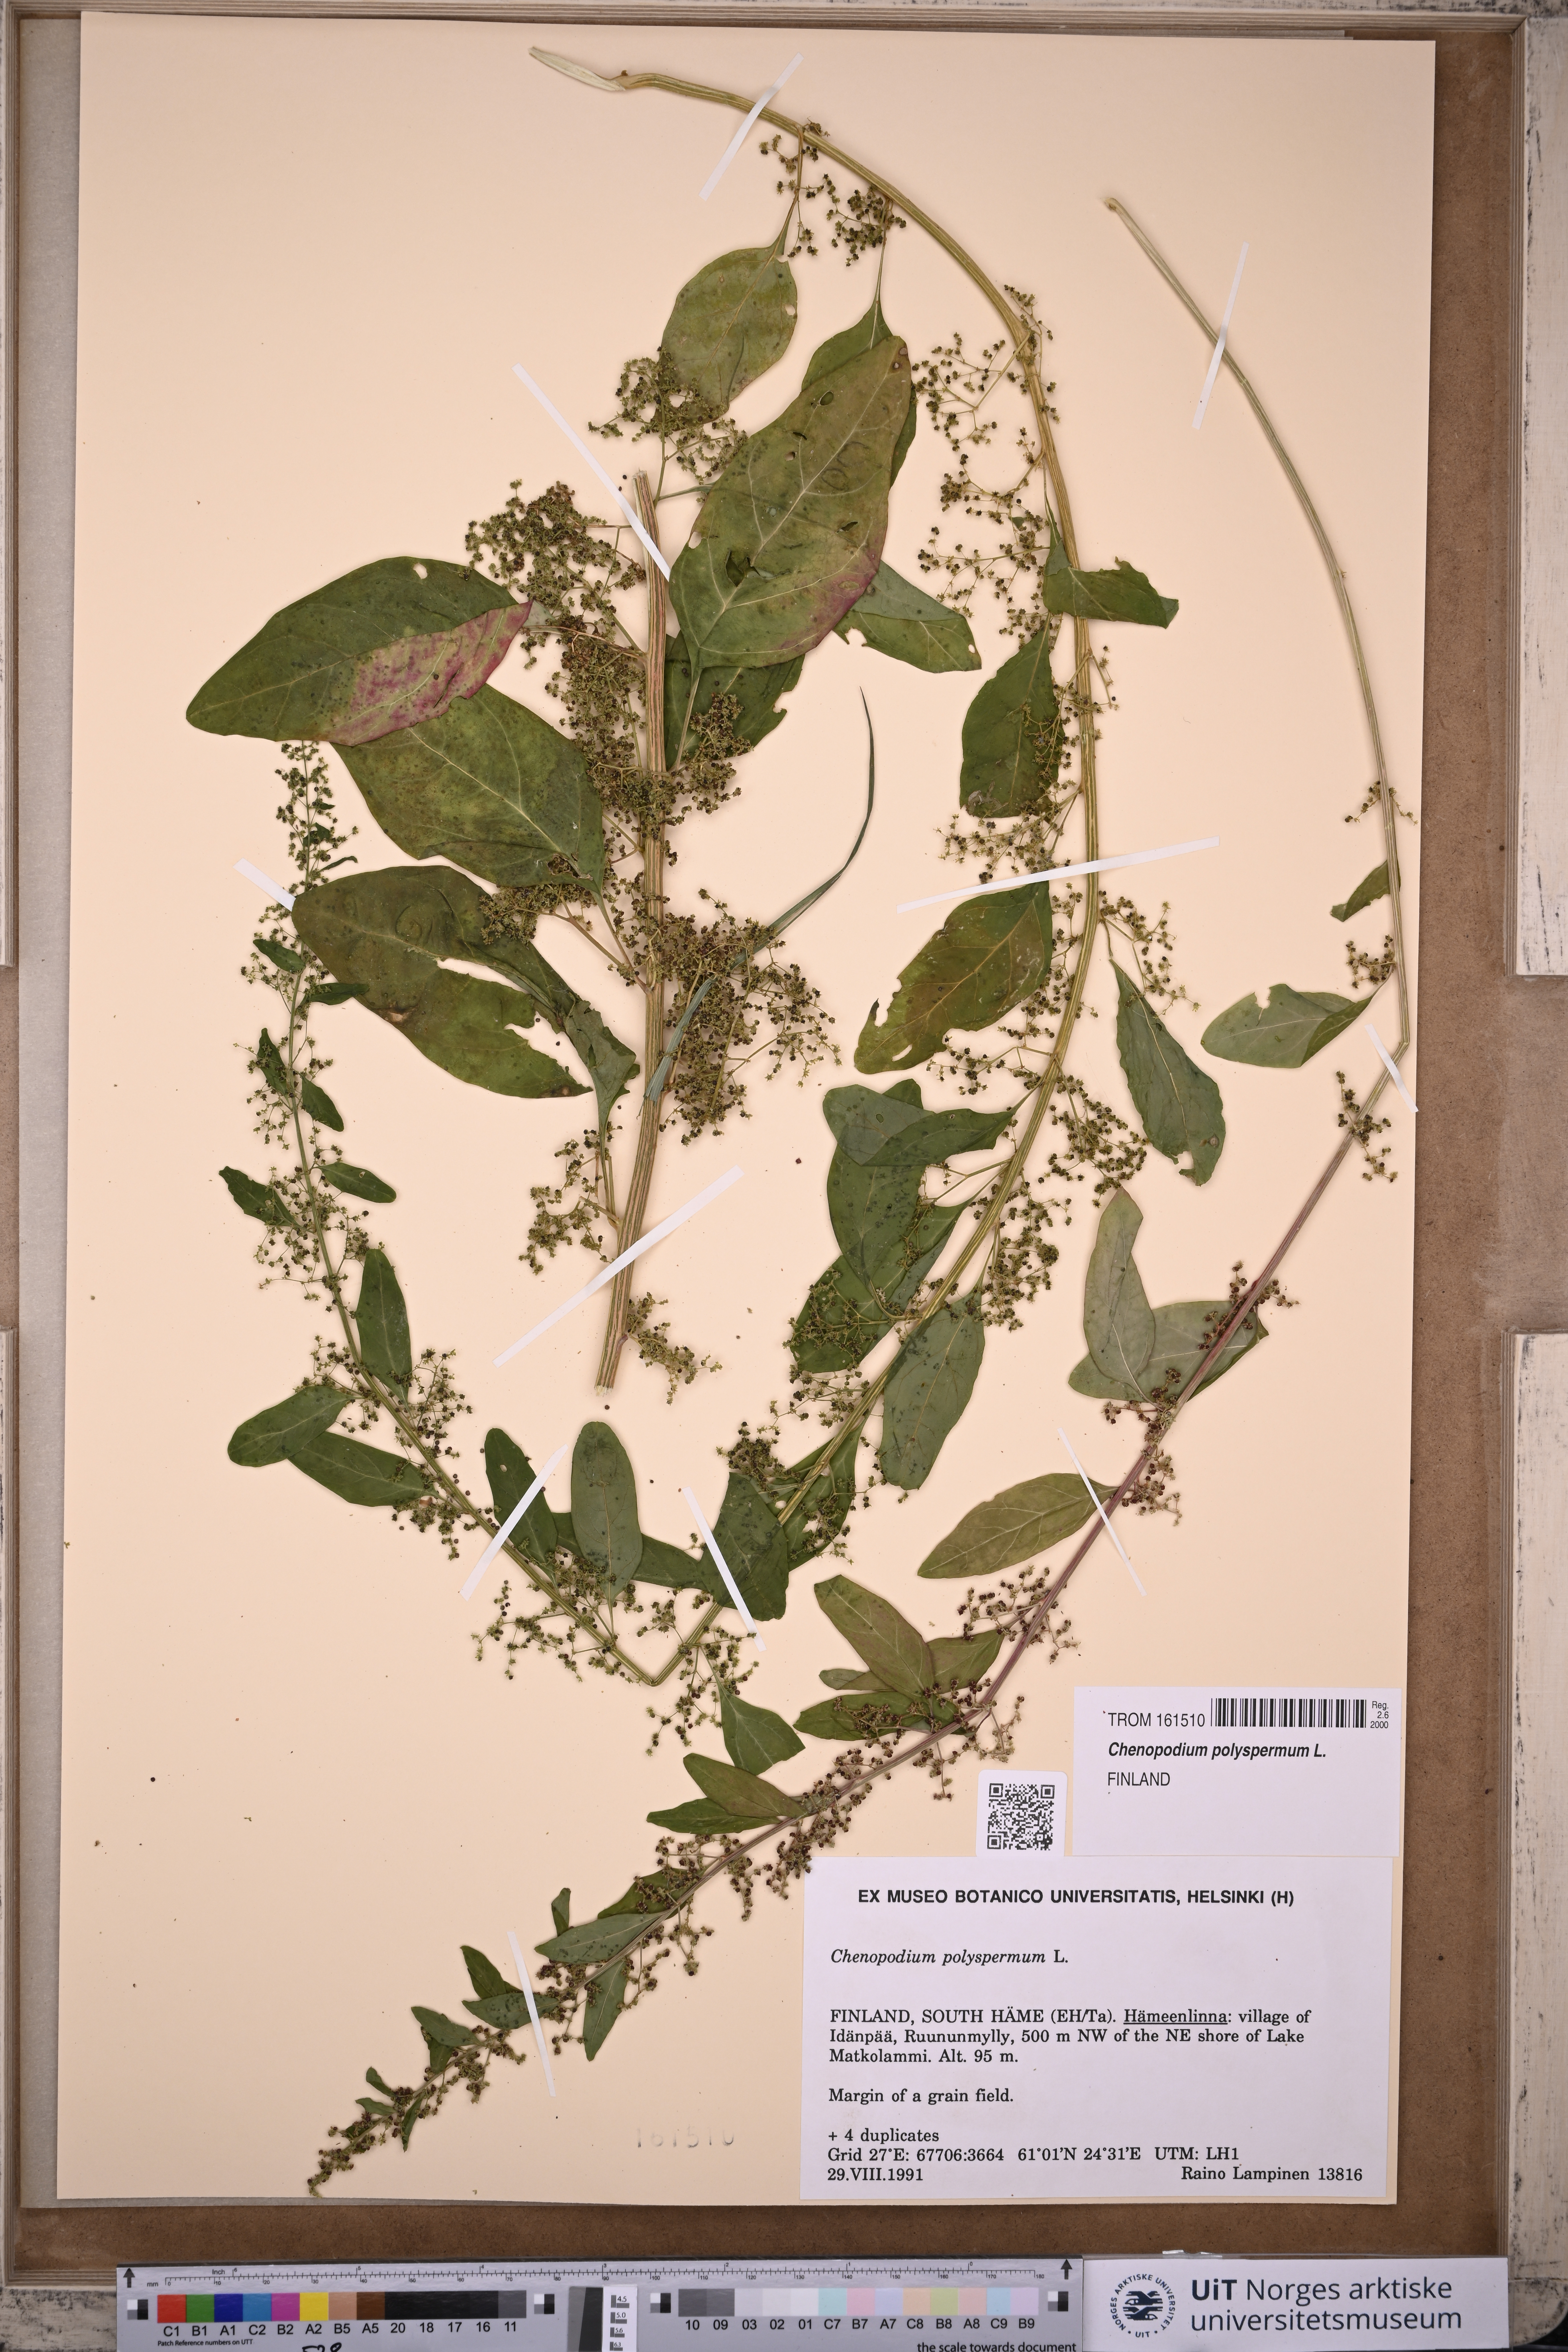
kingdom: Plantae
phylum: Tracheophyta
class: Magnoliopsida
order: Caryophyllales
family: Amaranthaceae
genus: Lipandra
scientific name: Lipandra polysperma
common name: Many-seed goosefoot
